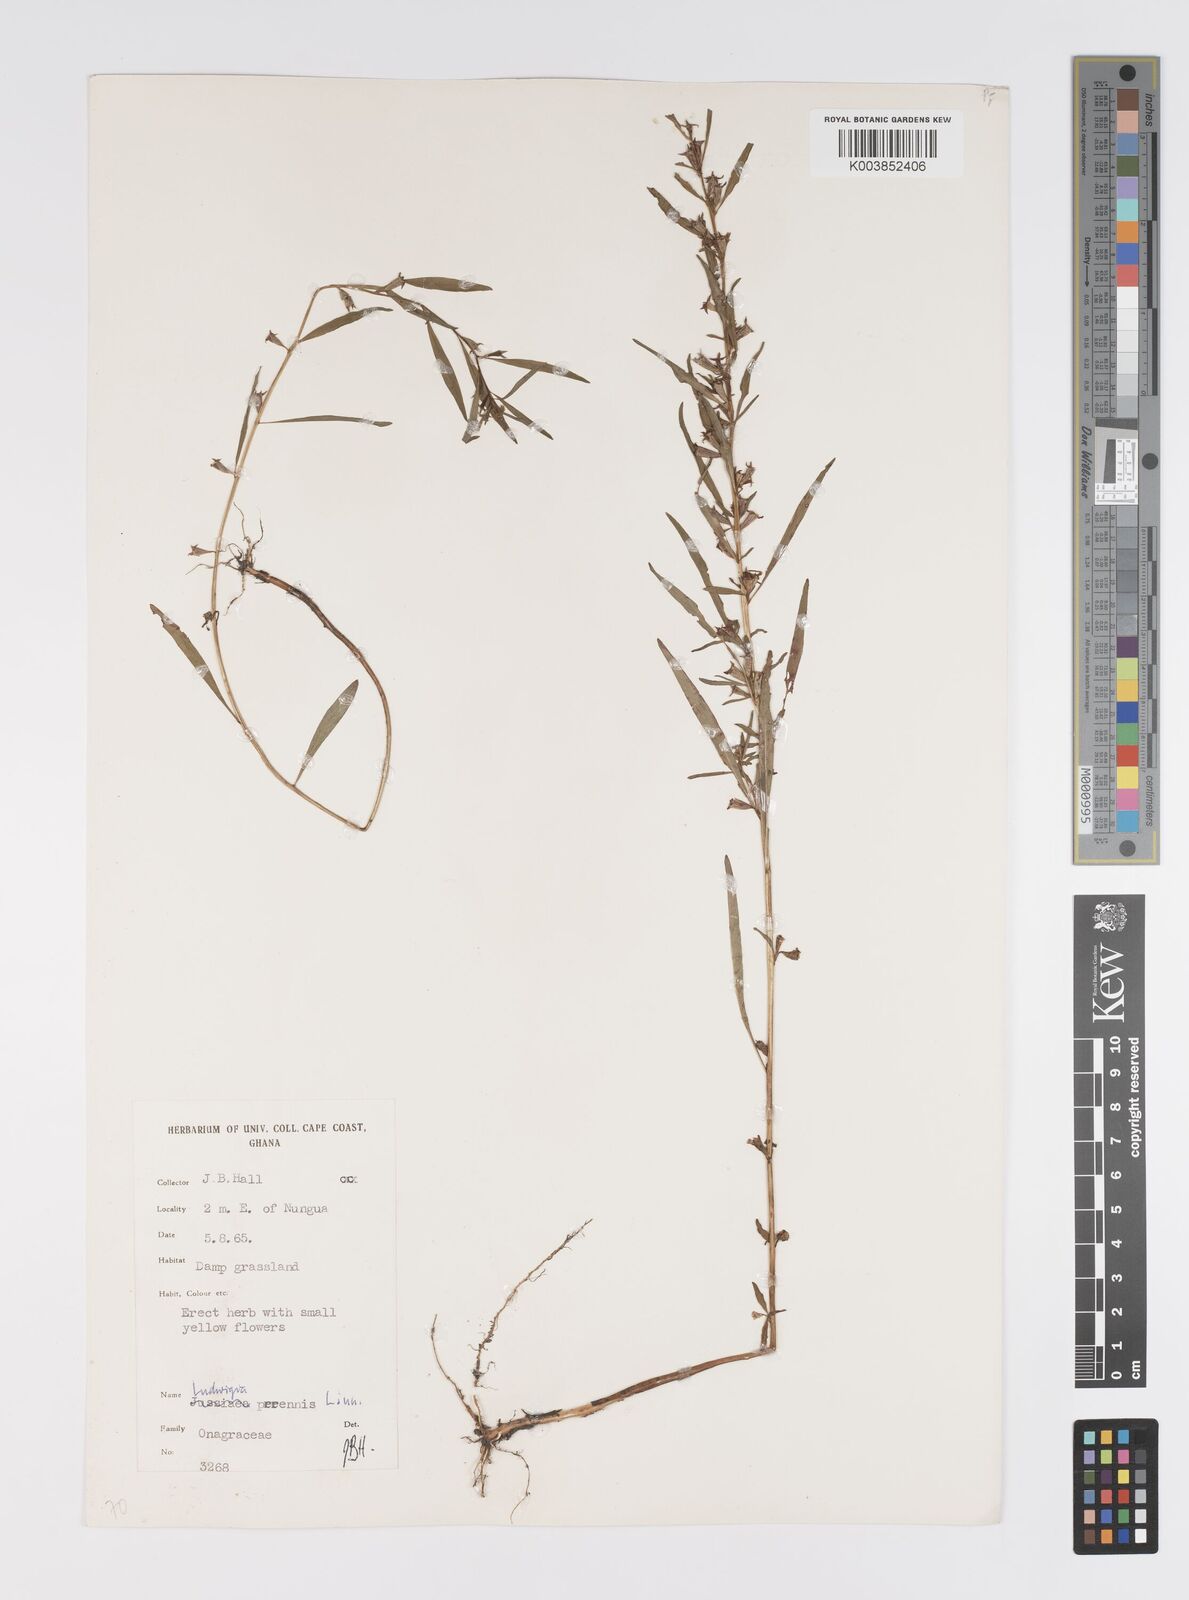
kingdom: Plantae
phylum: Tracheophyta
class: Magnoliopsida
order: Myrtales
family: Onagraceae
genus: Ludwigia
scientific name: Ludwigia perennis
